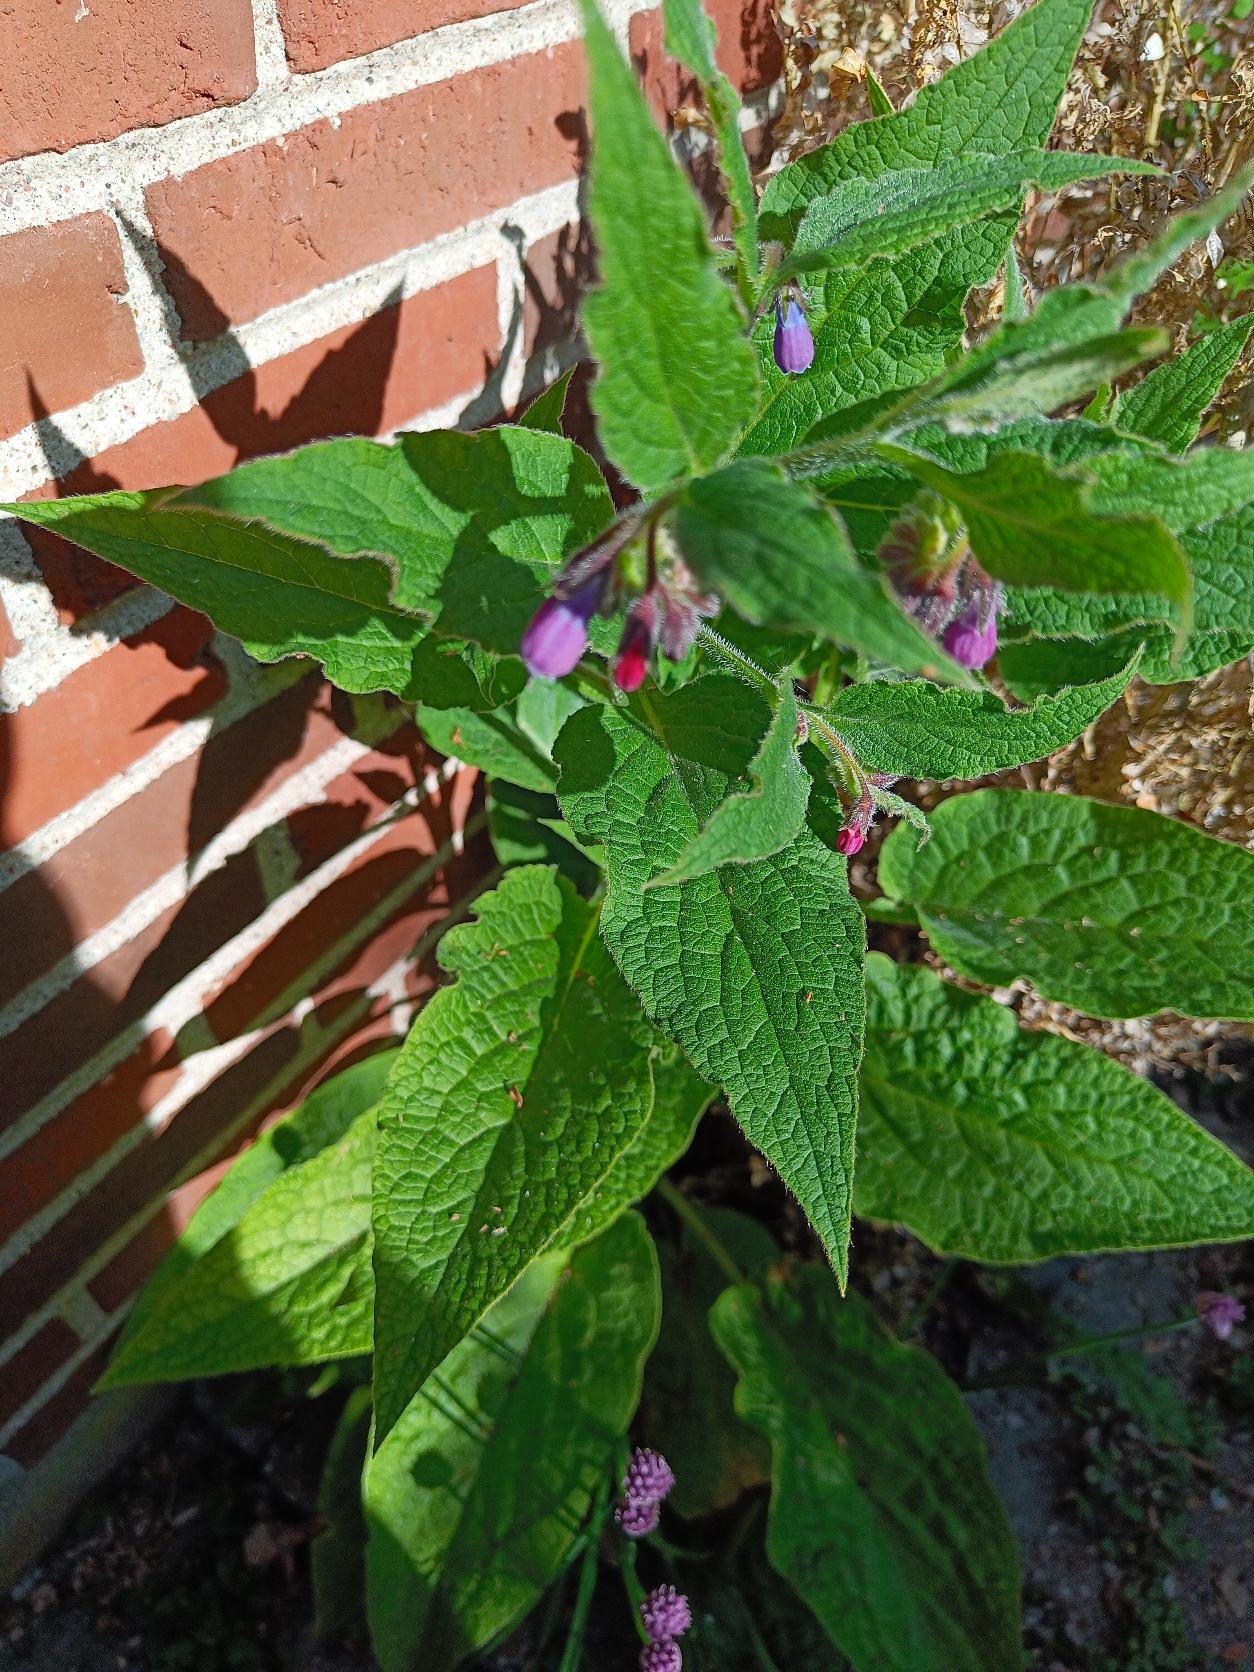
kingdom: Plantae
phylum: Tracheophyta
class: Magnoliopsida
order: Boraginales
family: Boraginaceae
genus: Symphytum
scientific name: Symphytum uplandicum
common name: Foder-kulsukker
